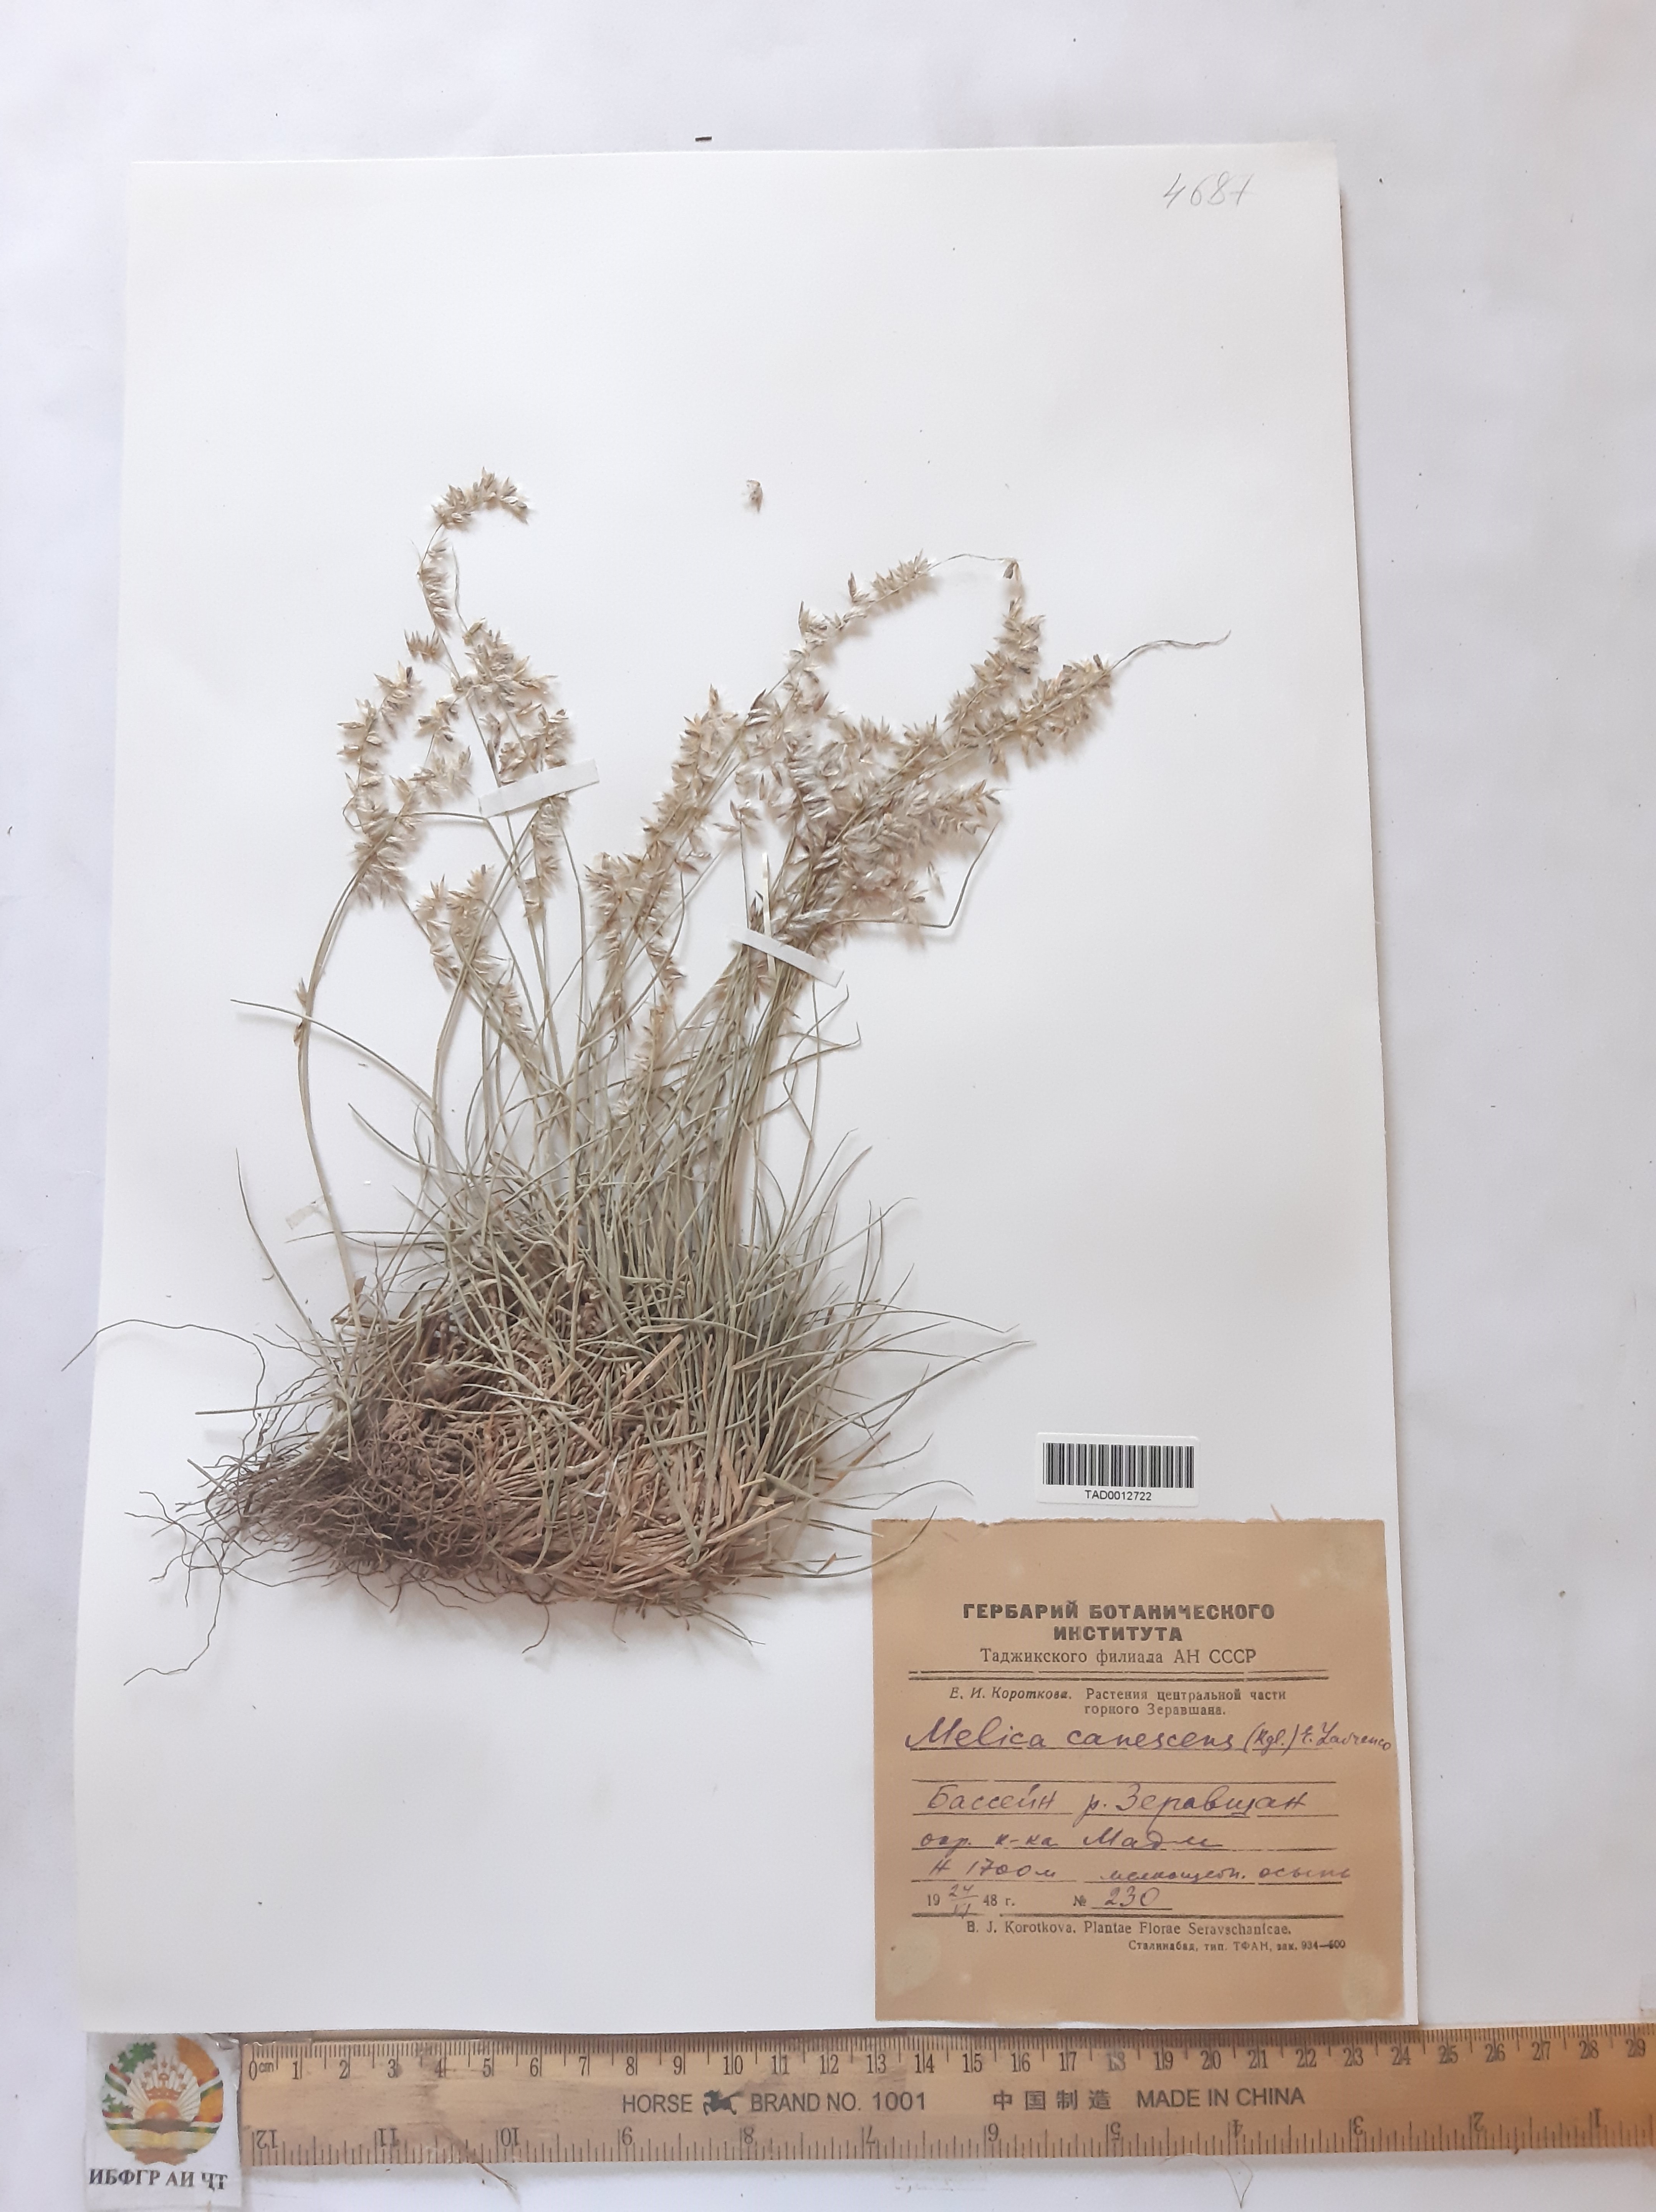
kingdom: Plantae
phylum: Tracheophyta
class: Liliopsida
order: Poales
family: Poaceae
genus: Melica
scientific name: Melica persica
